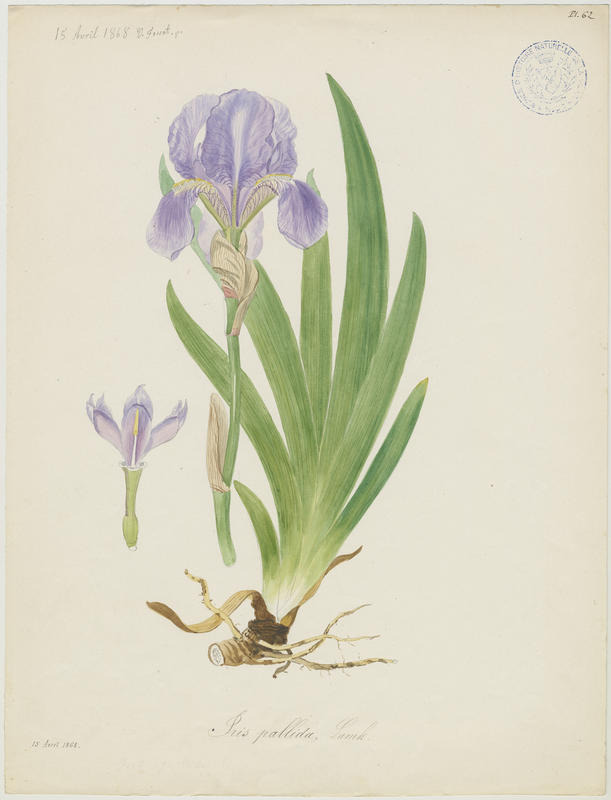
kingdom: Plantae
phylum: Tracheophyta
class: Liliopsida
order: Asparagales
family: Iridaceae
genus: Iris
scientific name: Iris pallida
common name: Sweet iris
